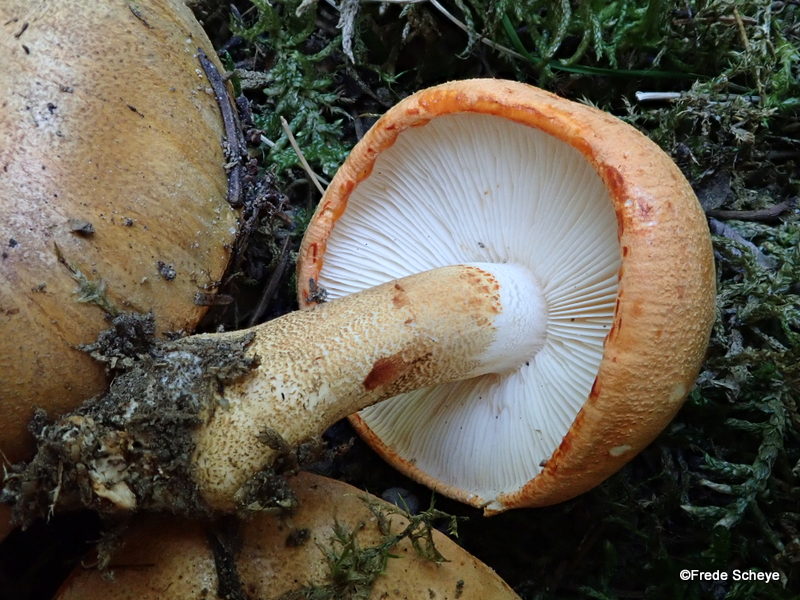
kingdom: Fungi
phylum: Basidiomycota
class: Agaricomycetes
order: Agaricales
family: Tricholomataceae
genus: Tricholoma
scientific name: Tricholoma aurantium
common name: orangegul ridderhat
